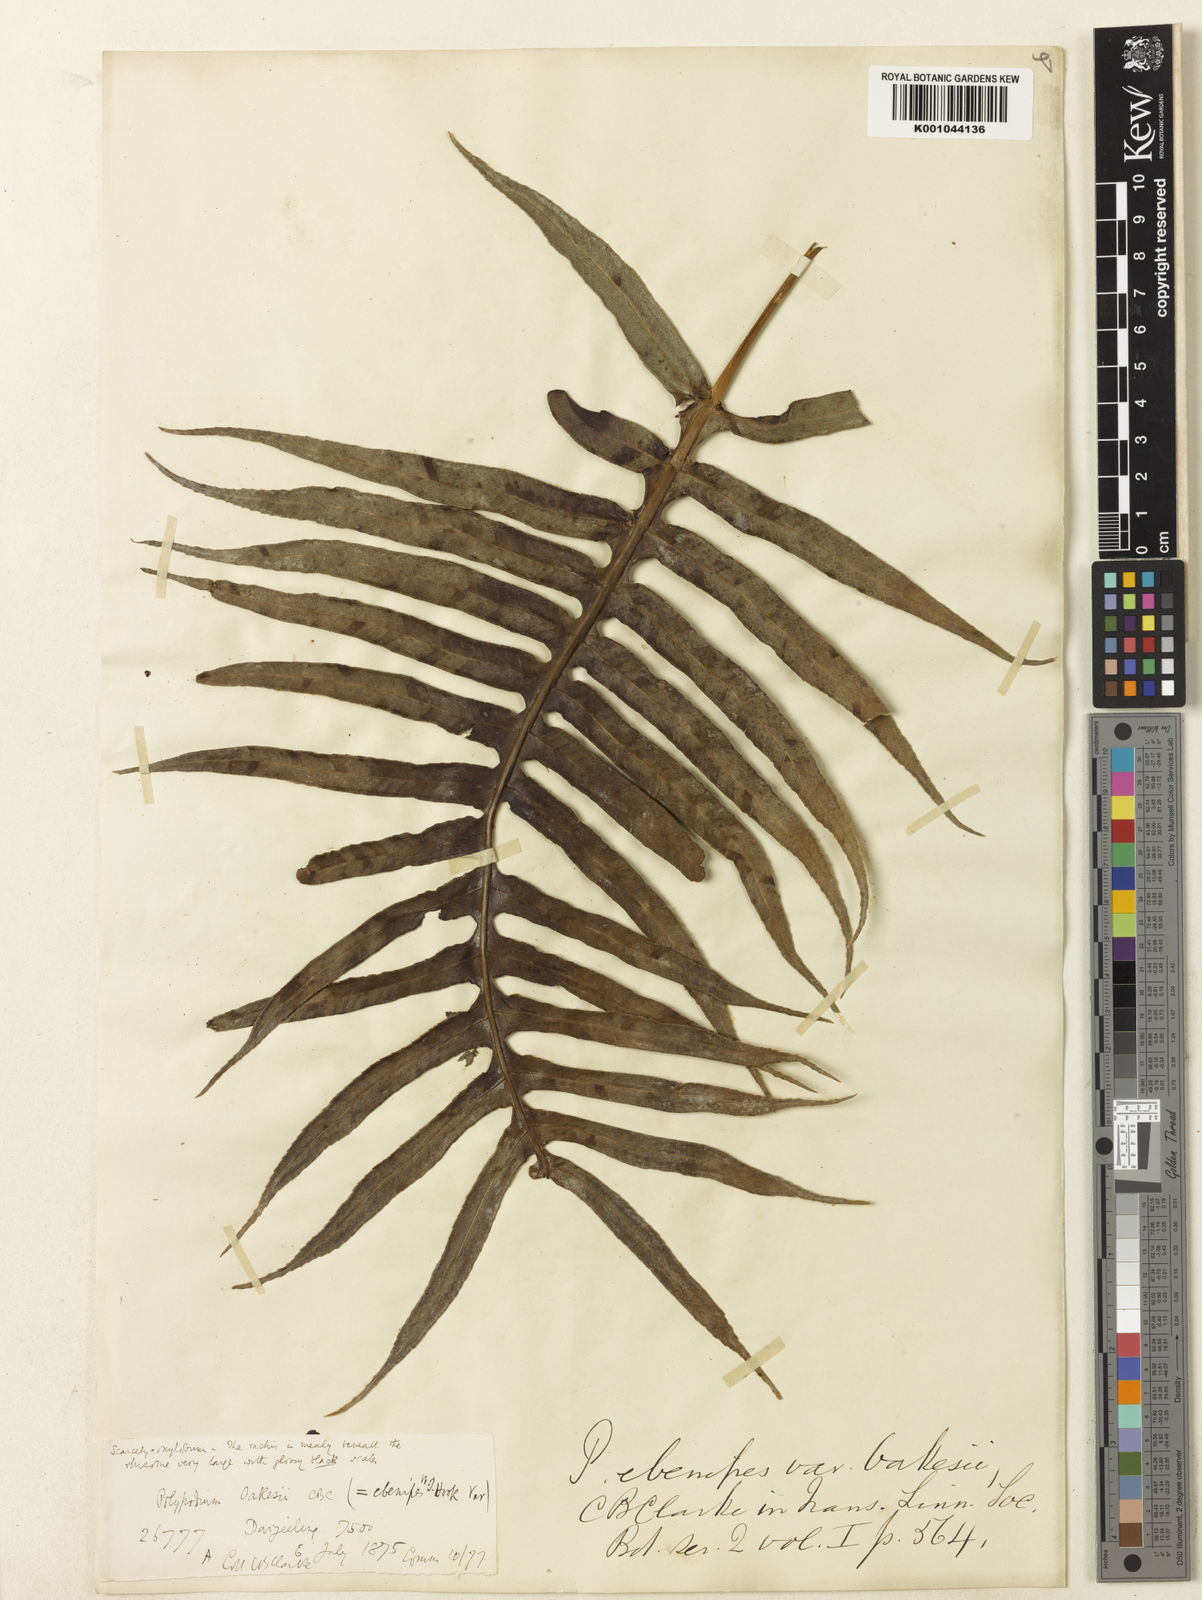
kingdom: Plantae
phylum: Tracheophyta
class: Polypodiopsida
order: Polypodiales
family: Polypodiaceae
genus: Selliguea
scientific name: Selliguea ebenipes
